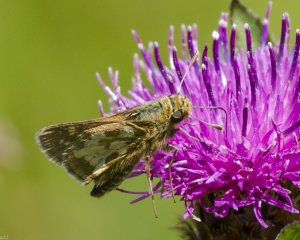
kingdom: Animalia
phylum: Arthropoda
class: Insecta
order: Lepidoptera
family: Hesperiidae
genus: Polites
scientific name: Polites coras
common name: Peck's Skipper
